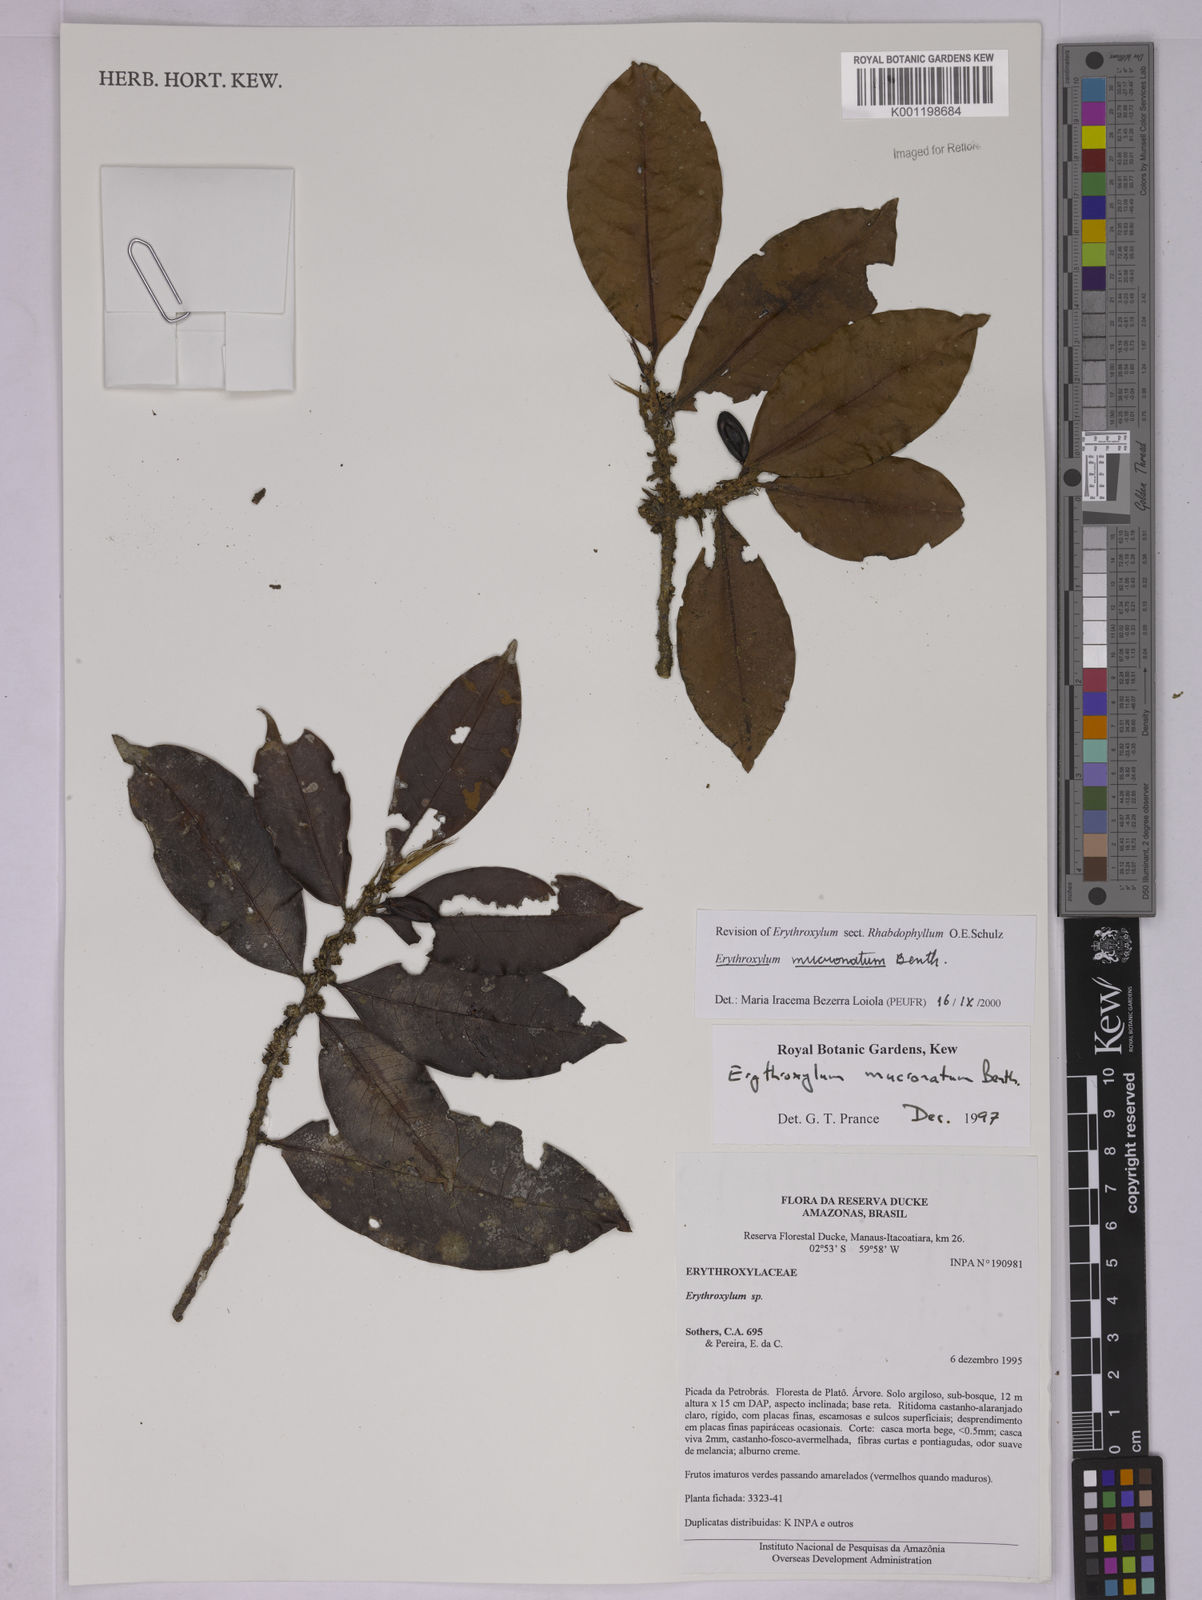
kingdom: Plantae
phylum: Tracheophyta
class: Magnoliopsida
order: Malpighiales
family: Erythroxylaceae
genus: Erythroxylum
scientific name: Erythroxylum mucronatum
